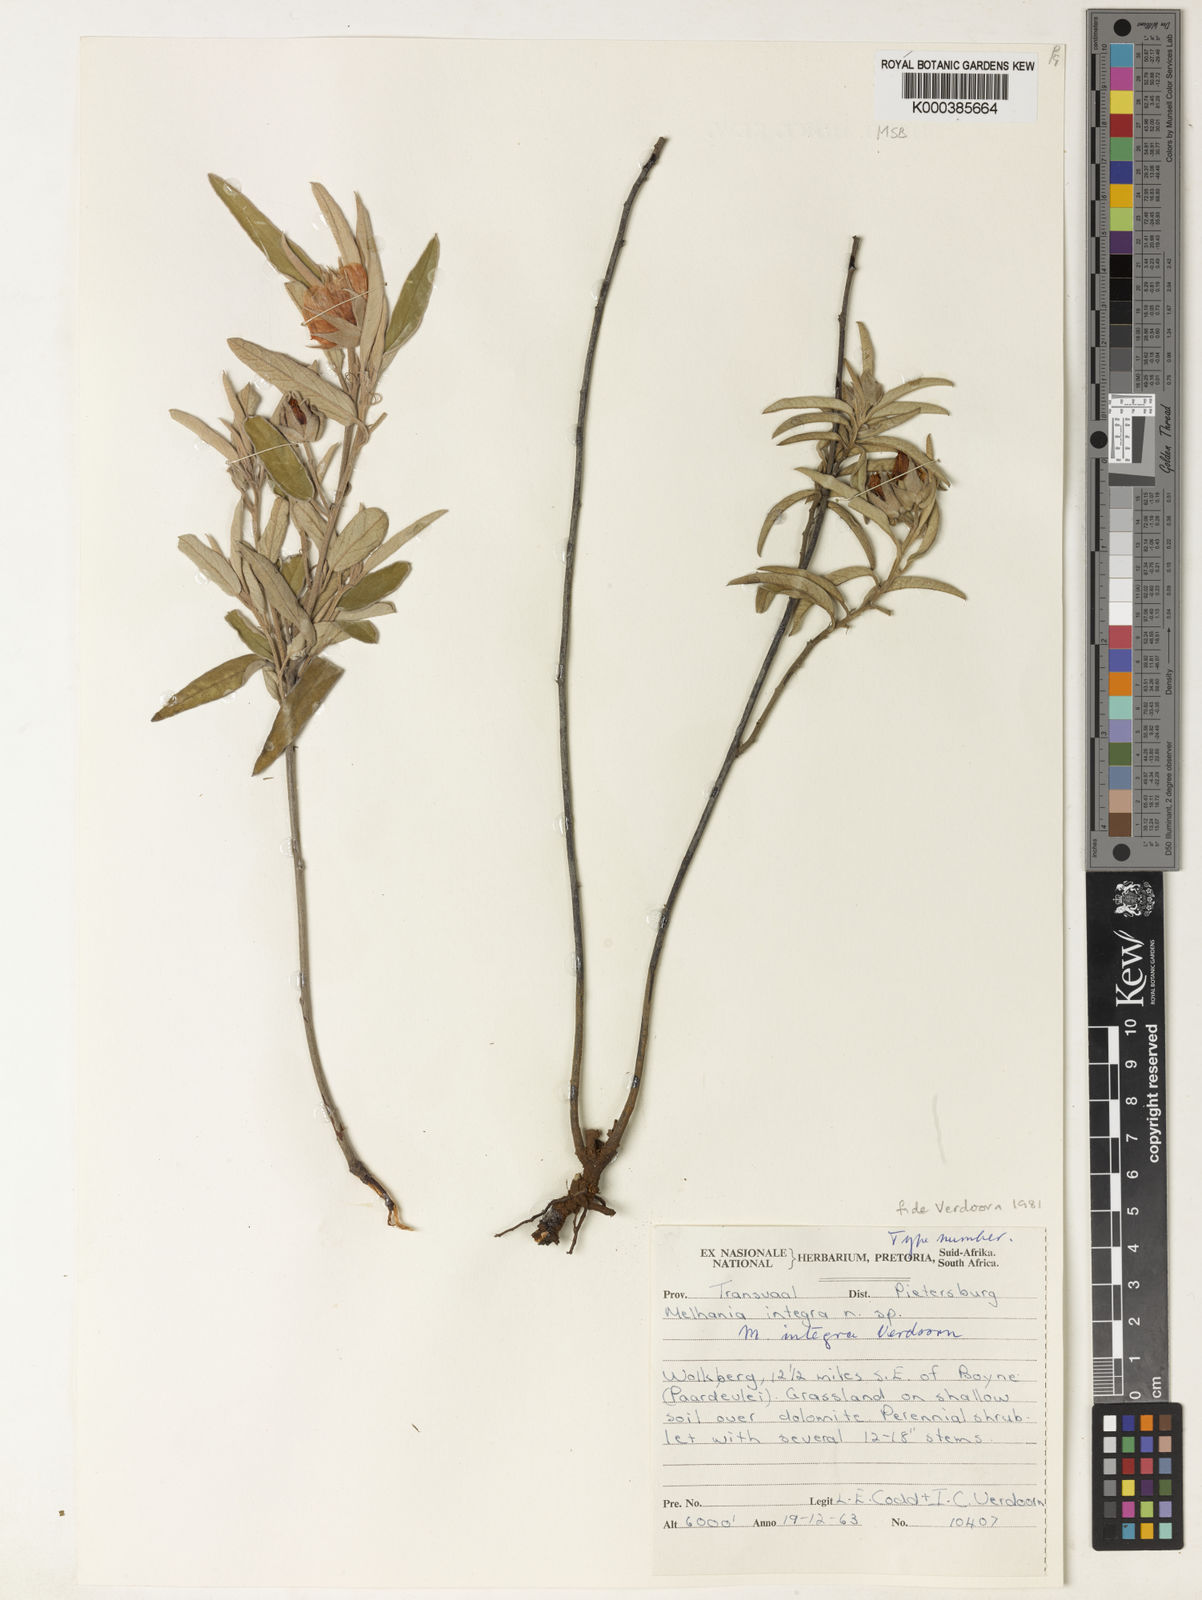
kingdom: Plantae
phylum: Tracheophyta
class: Magnoliopsida
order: Malvales
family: Malvaceae
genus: Melhania
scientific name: Melhania integra
